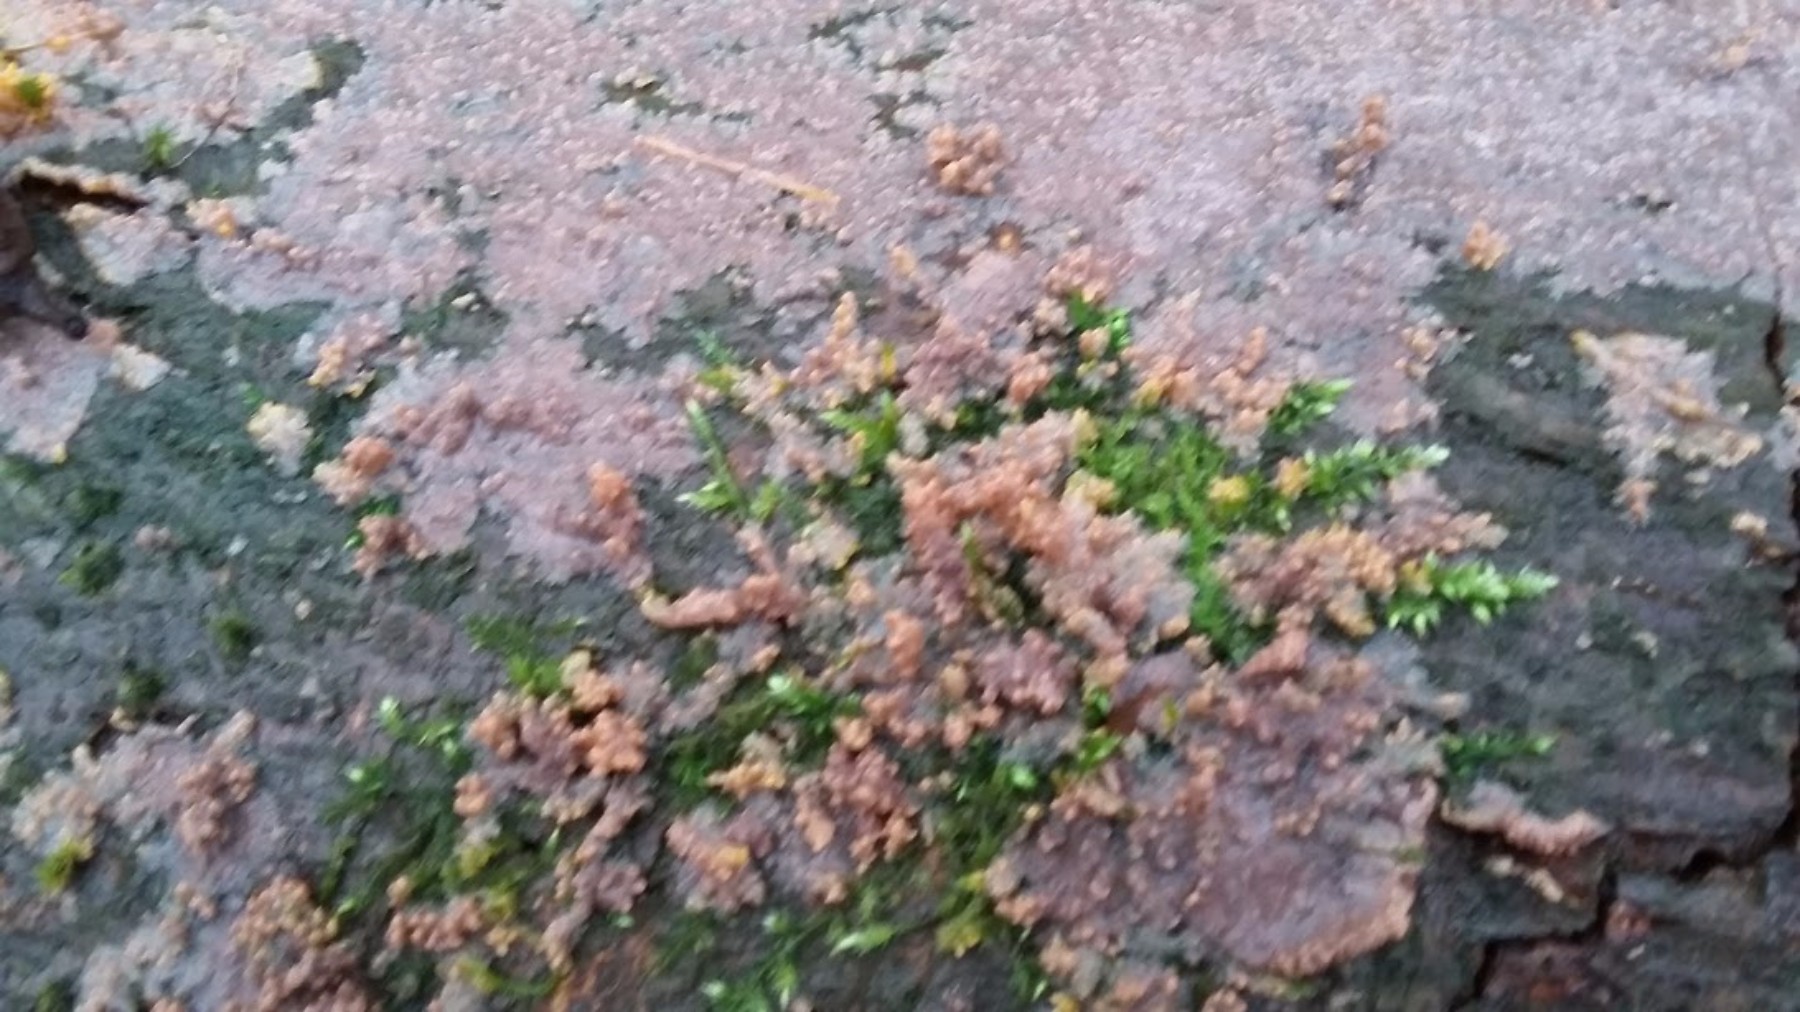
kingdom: Fungi
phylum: Basidiomycota
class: Agaricomycetes
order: Polyporales
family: Meruliaceae
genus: Phlebia
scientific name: Phlebia radiata
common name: stråle-åresvamp
